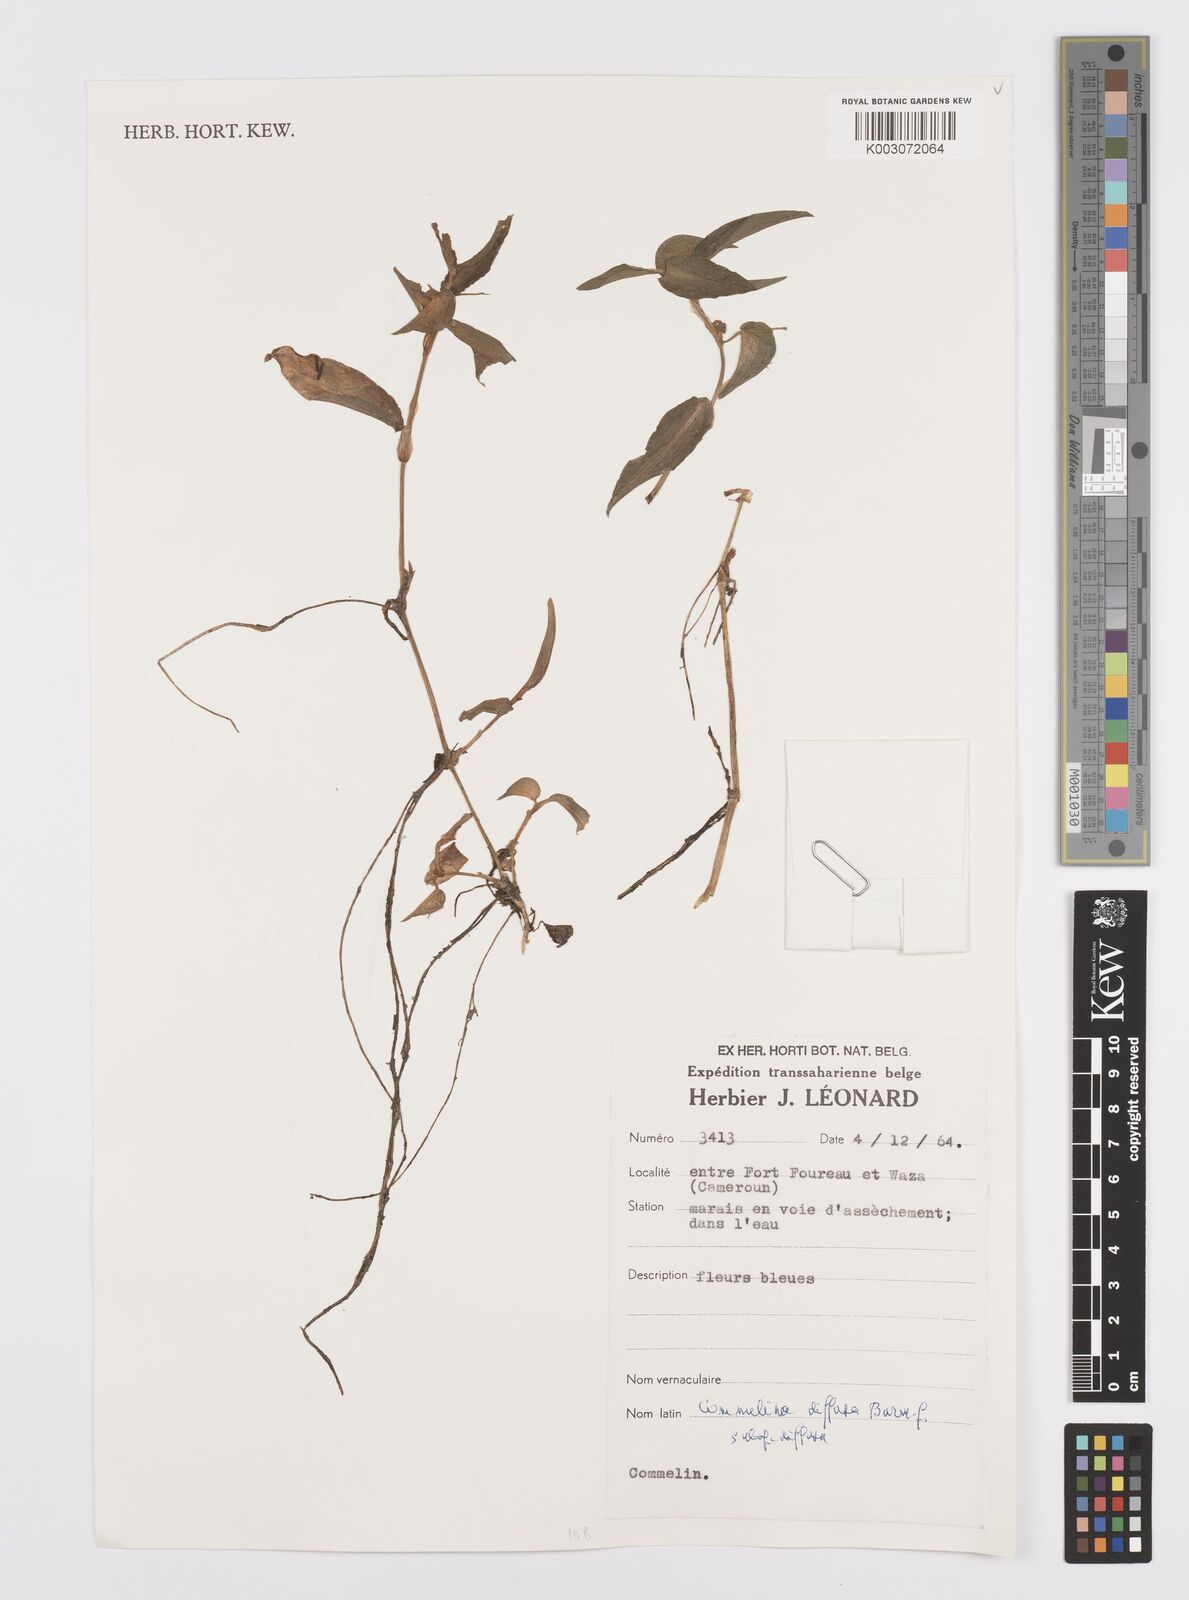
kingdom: Plantae
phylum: Tracheophyta
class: Liliopsida
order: Commelinales
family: Commelinaceae
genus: Commelina
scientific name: Commelina diffusa
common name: Climbing dayflower
